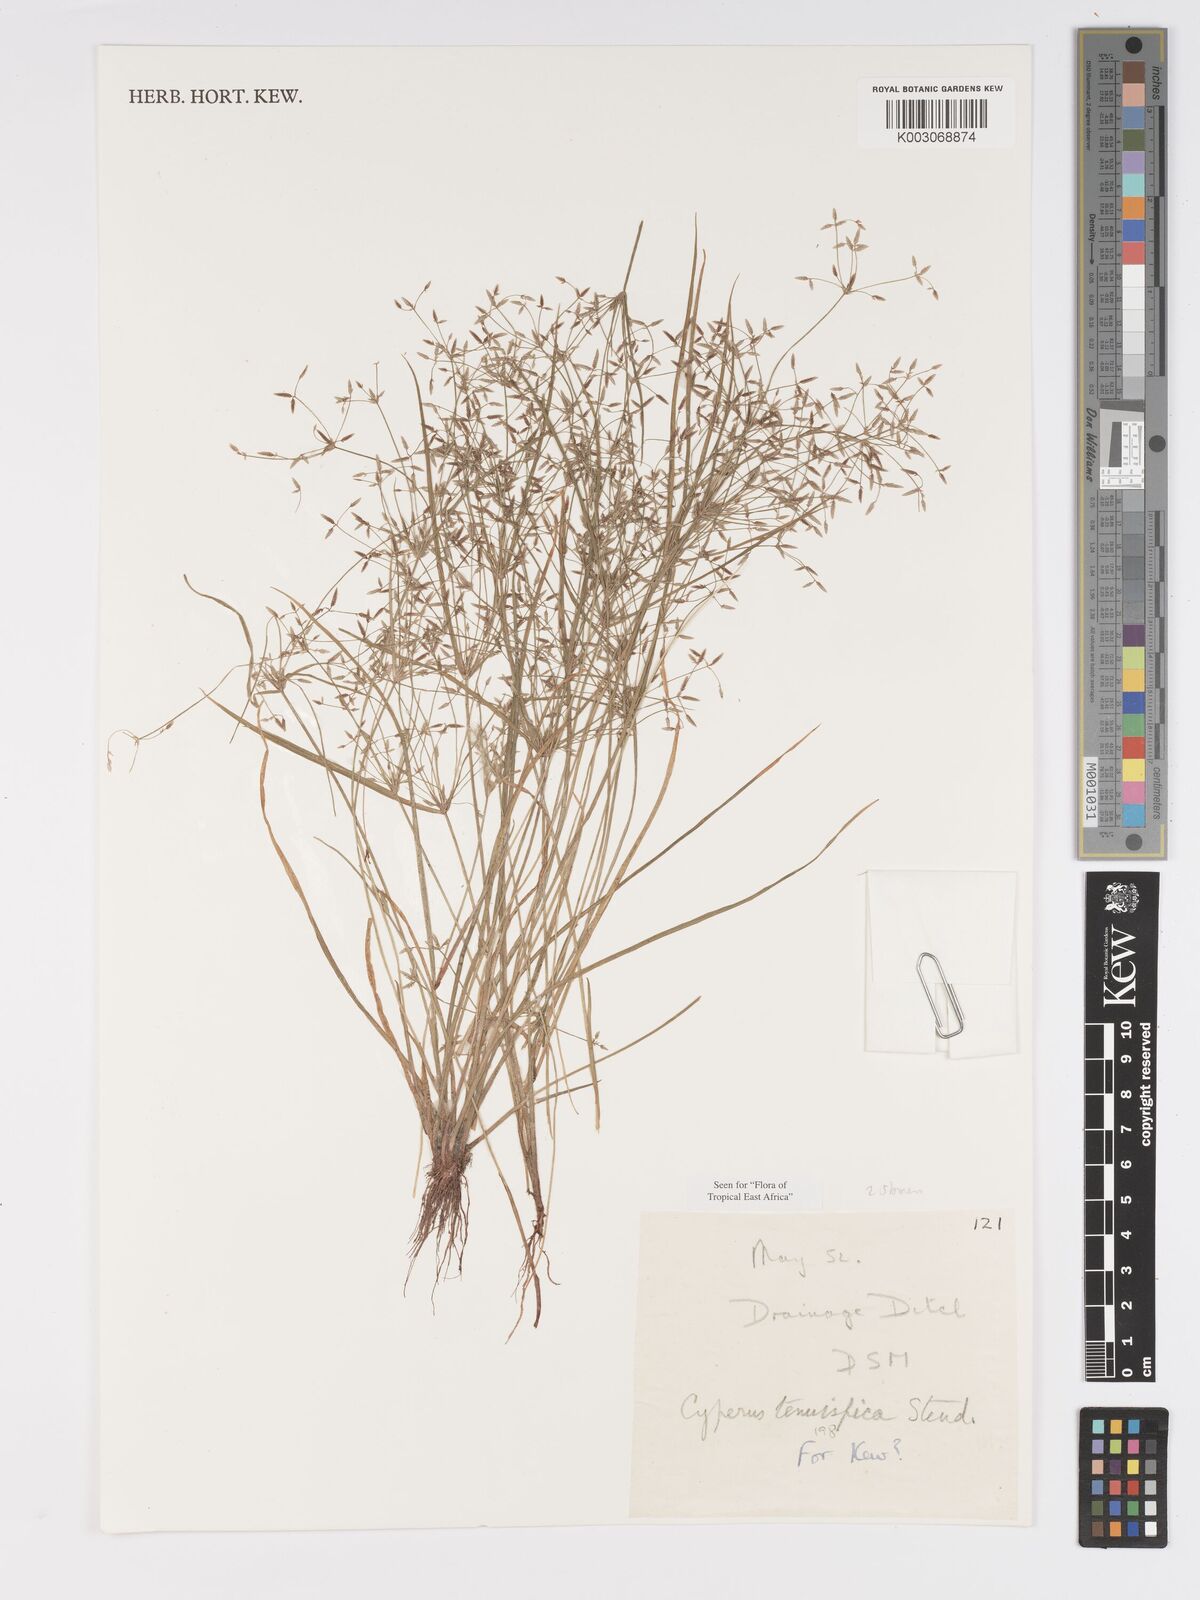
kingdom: Plantae
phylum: Tracheophyta
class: Liliopsida
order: Poales
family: Cyperaceae
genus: Cyperus
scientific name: Cyperus tenuispica
